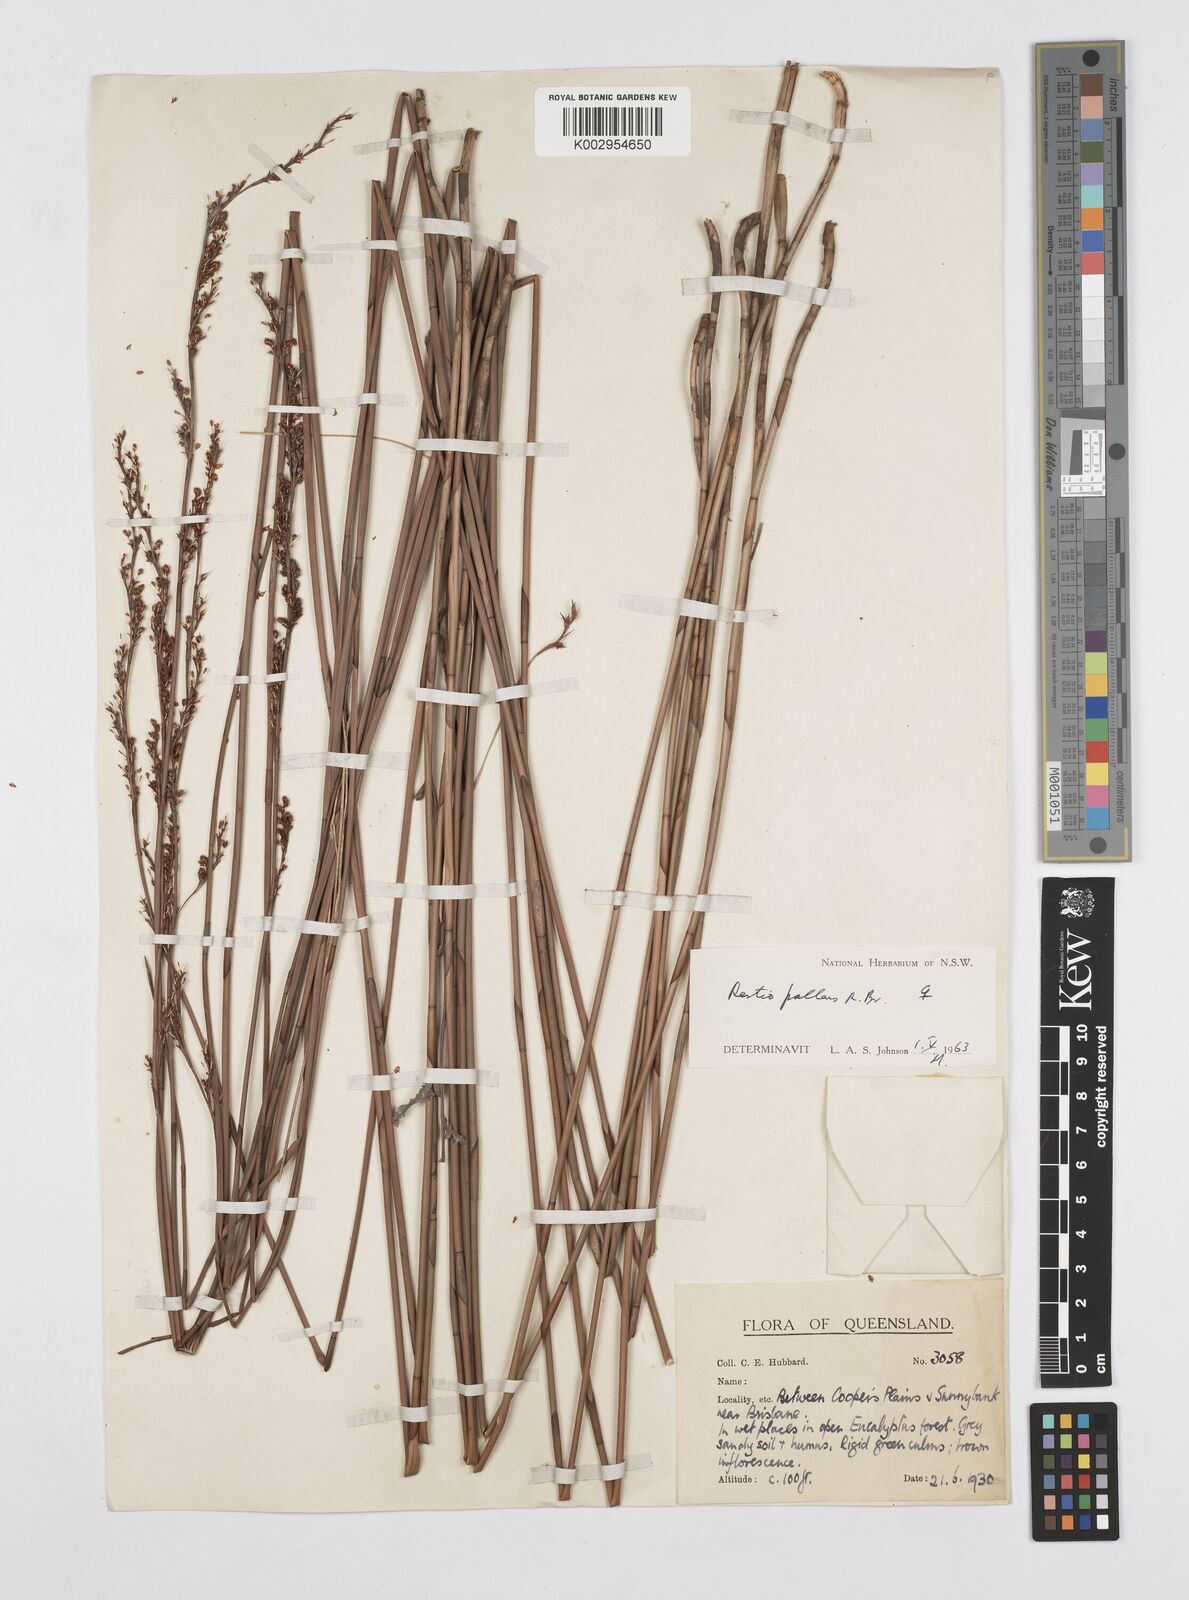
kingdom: Plantae
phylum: Tracheophyta
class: Liliopsida
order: Poales
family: Restionaceae
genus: Baloskion
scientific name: Baloskion pallens
